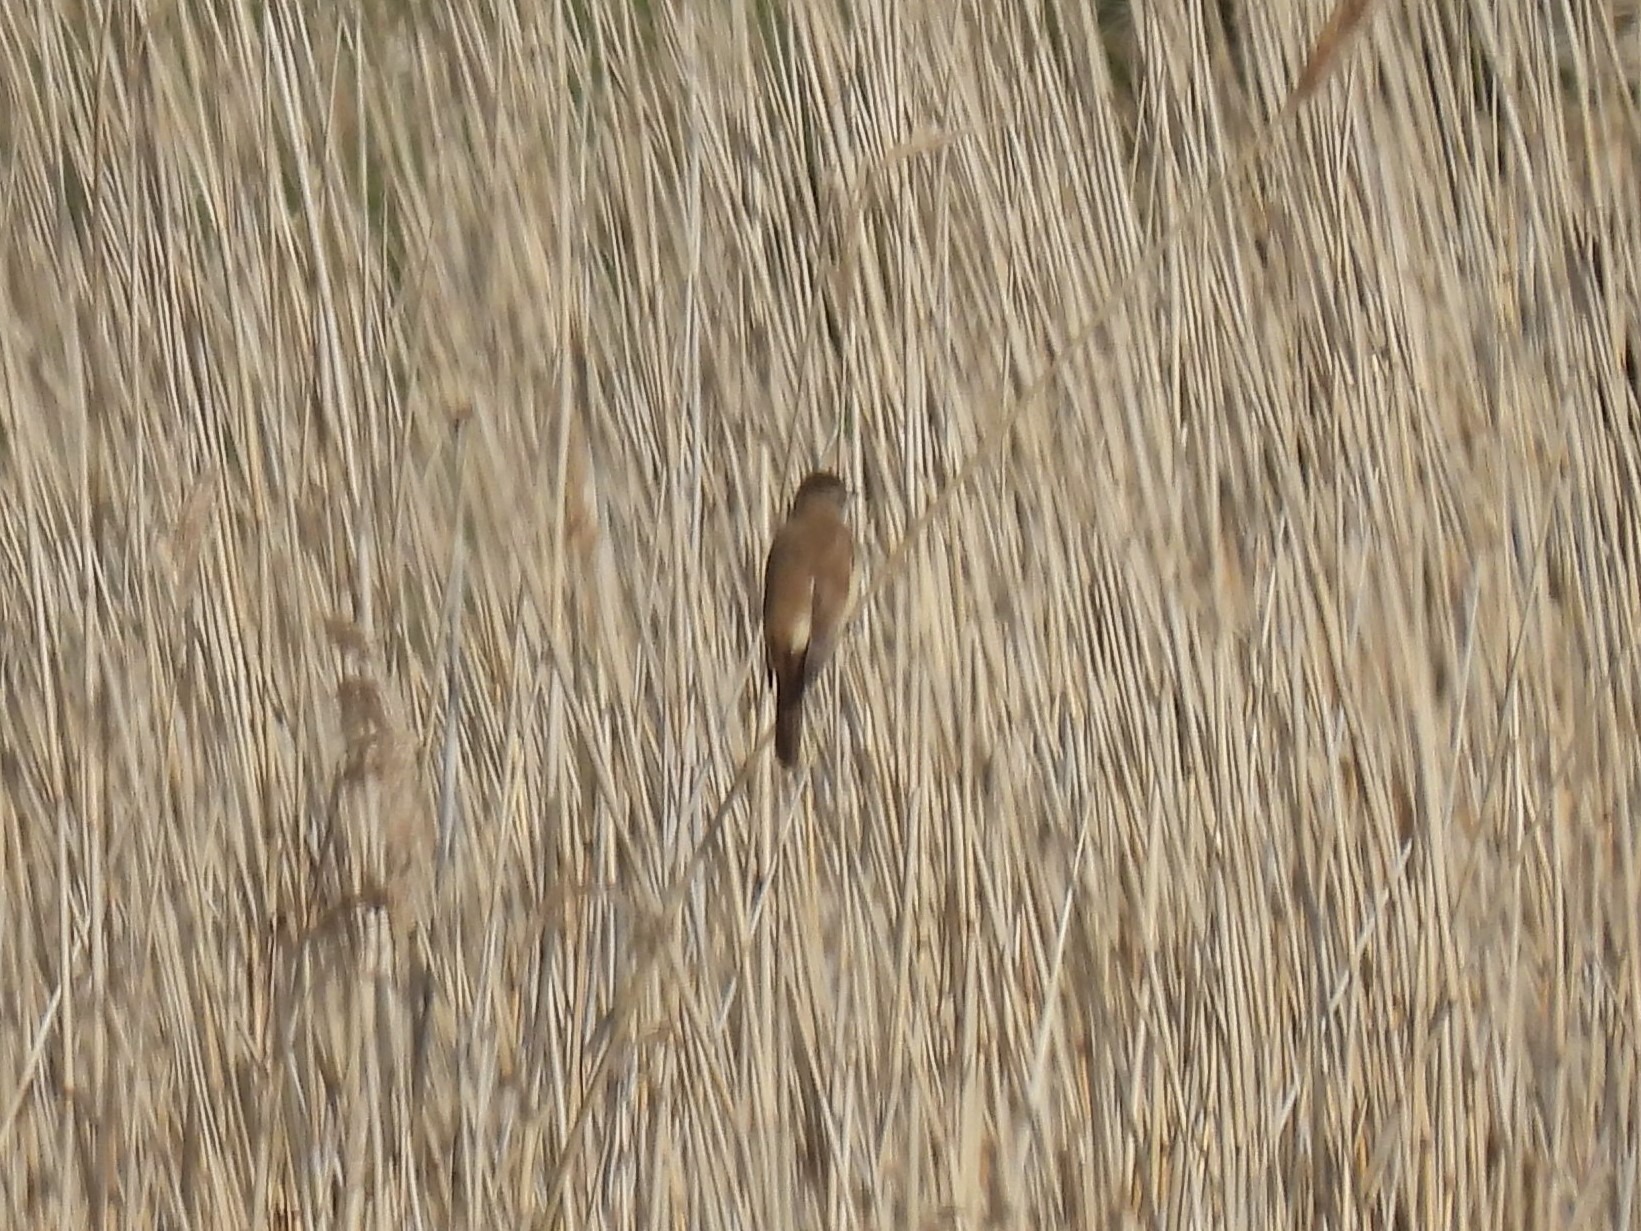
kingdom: Animalia
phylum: Chordata
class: Aves
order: Passeriformes
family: Acrocephalidae
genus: Acrocephalus
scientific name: Acrocephalus arundinaceus
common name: Drosselrørsanger
